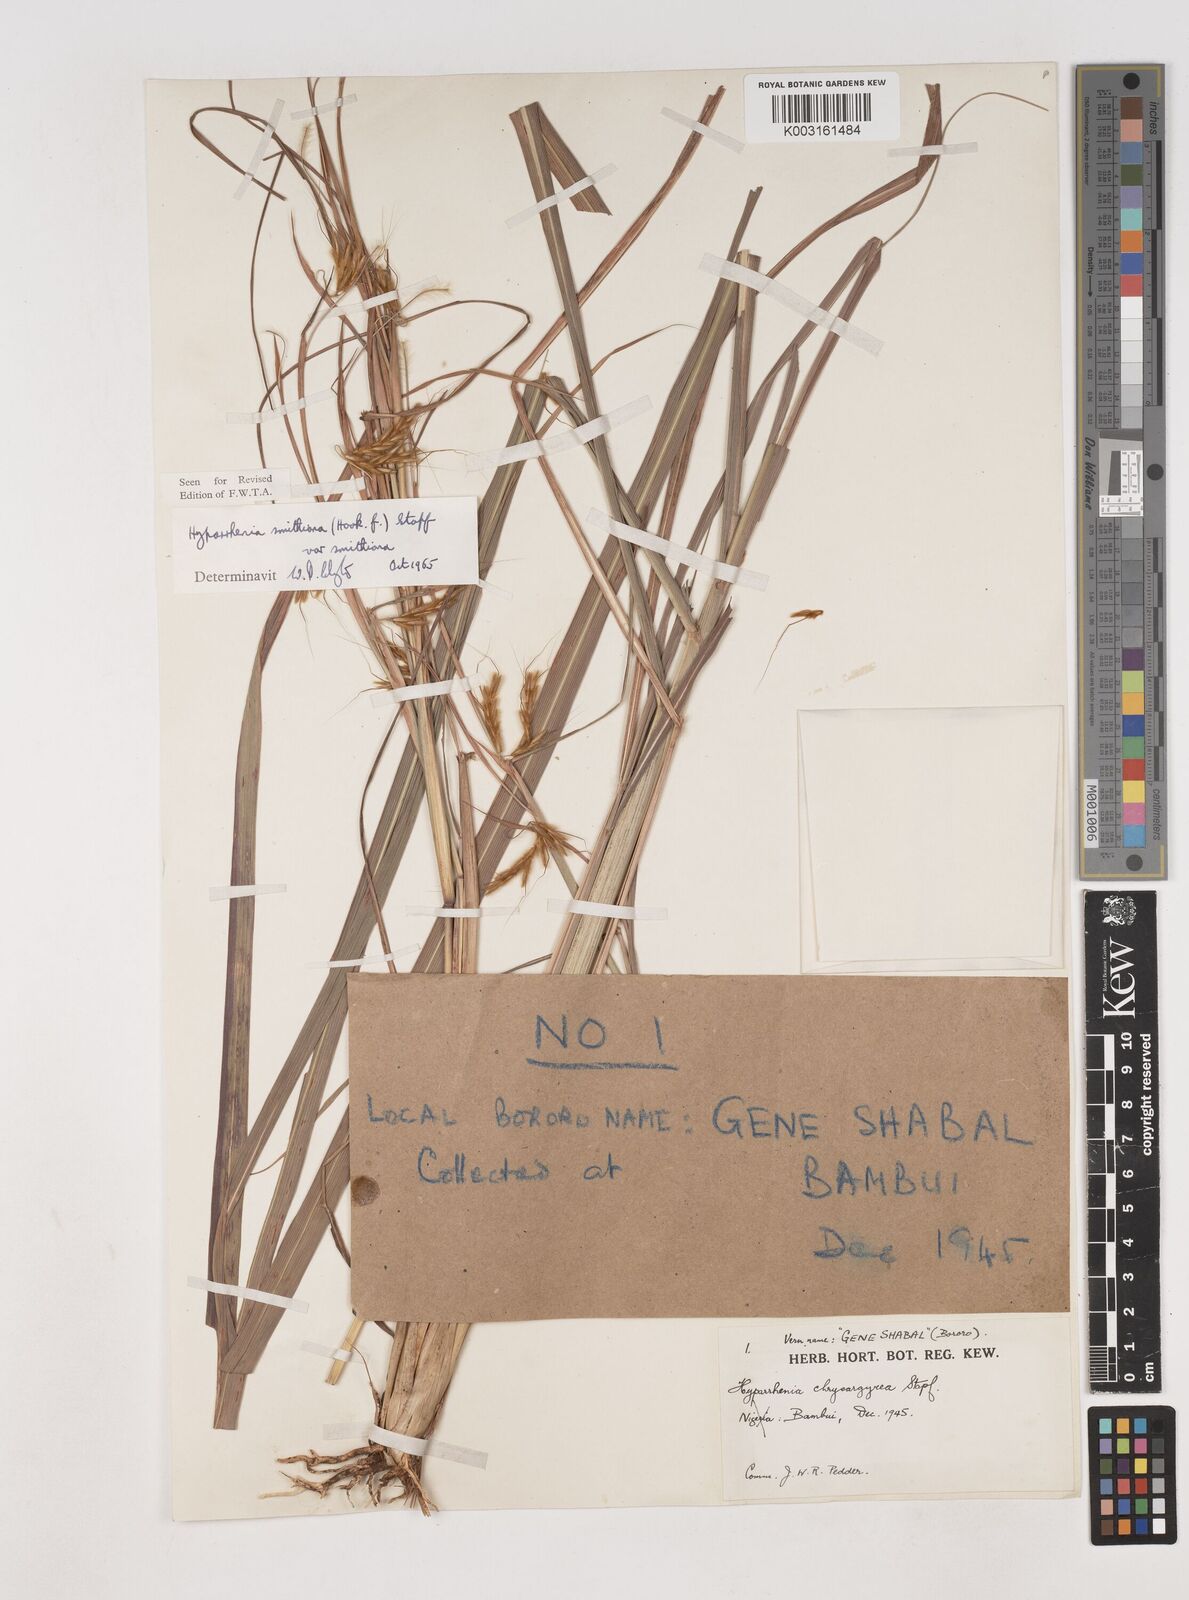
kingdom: Plantae
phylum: Tracheophyta
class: Liliopsida
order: Poales
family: Poaceae
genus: Hyparrhenia
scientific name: Hyparrhenia smithiana
